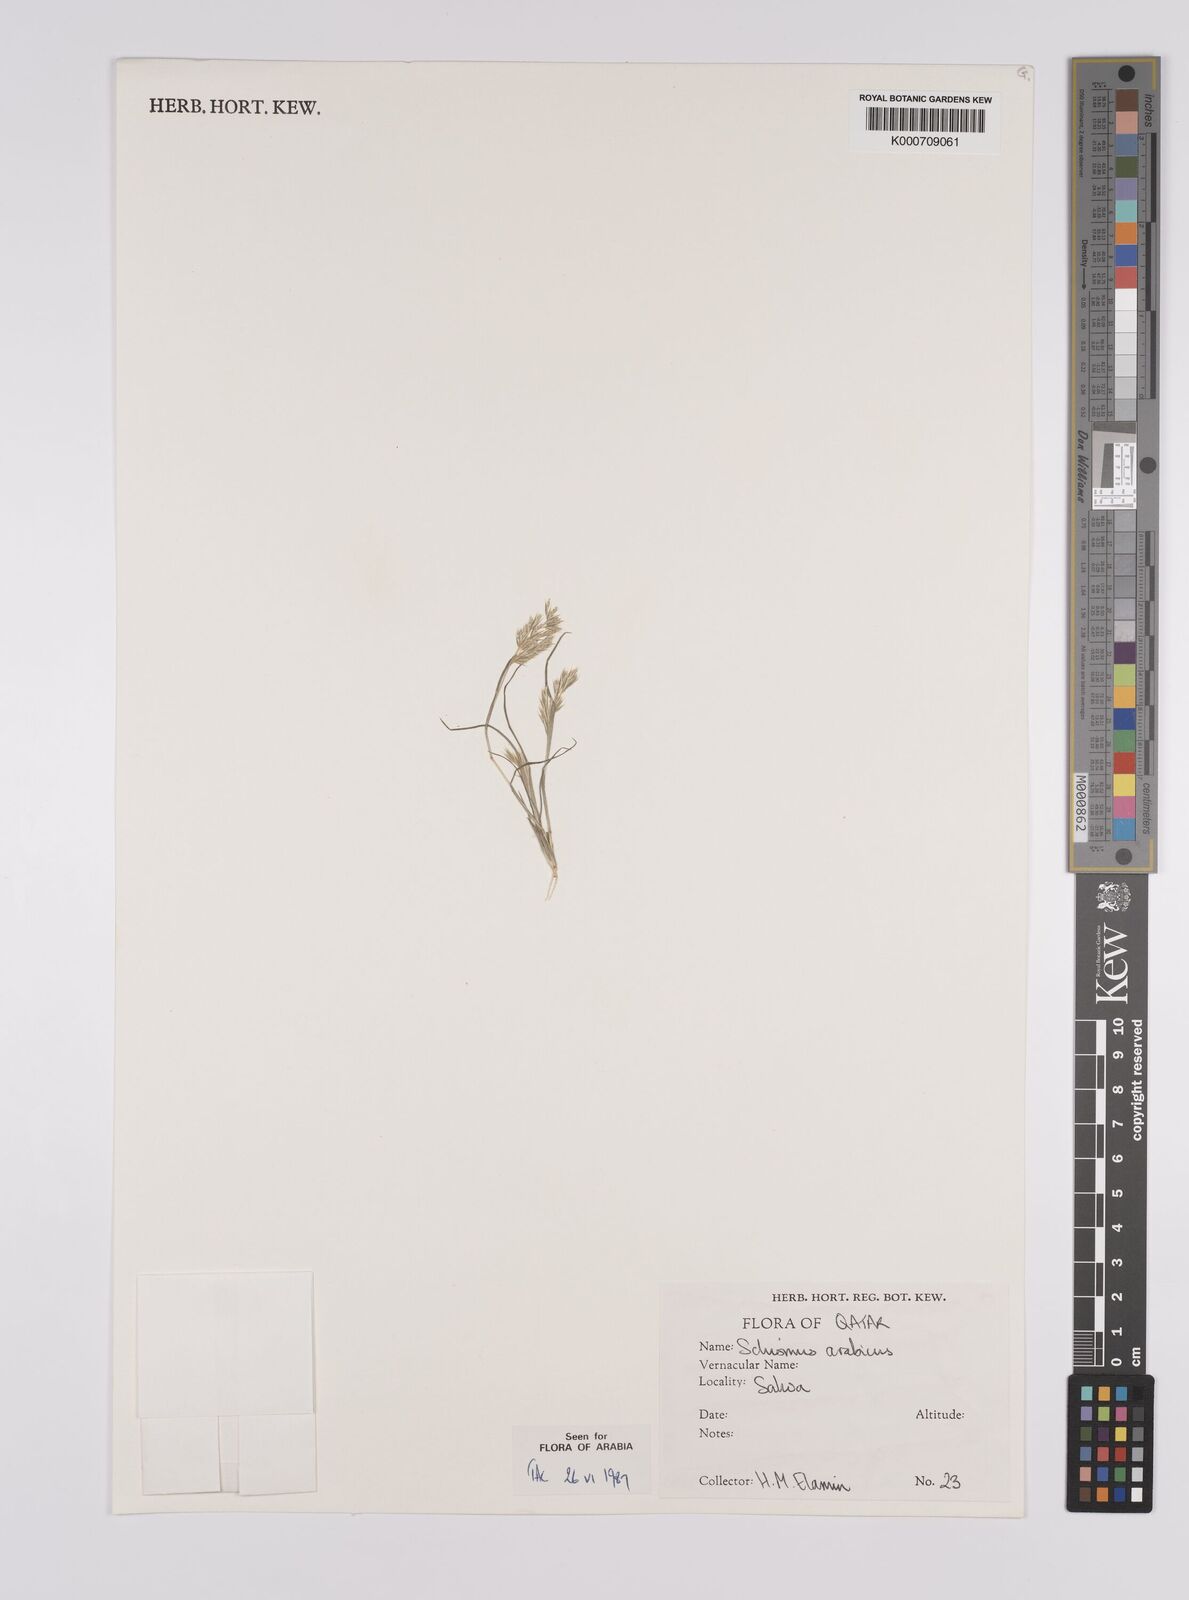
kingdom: Plantae
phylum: Tracheophyta
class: Liliopsida
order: Poales
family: Poaceae
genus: Schismus
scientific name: Schismus arabicus
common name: Arabian schismus
